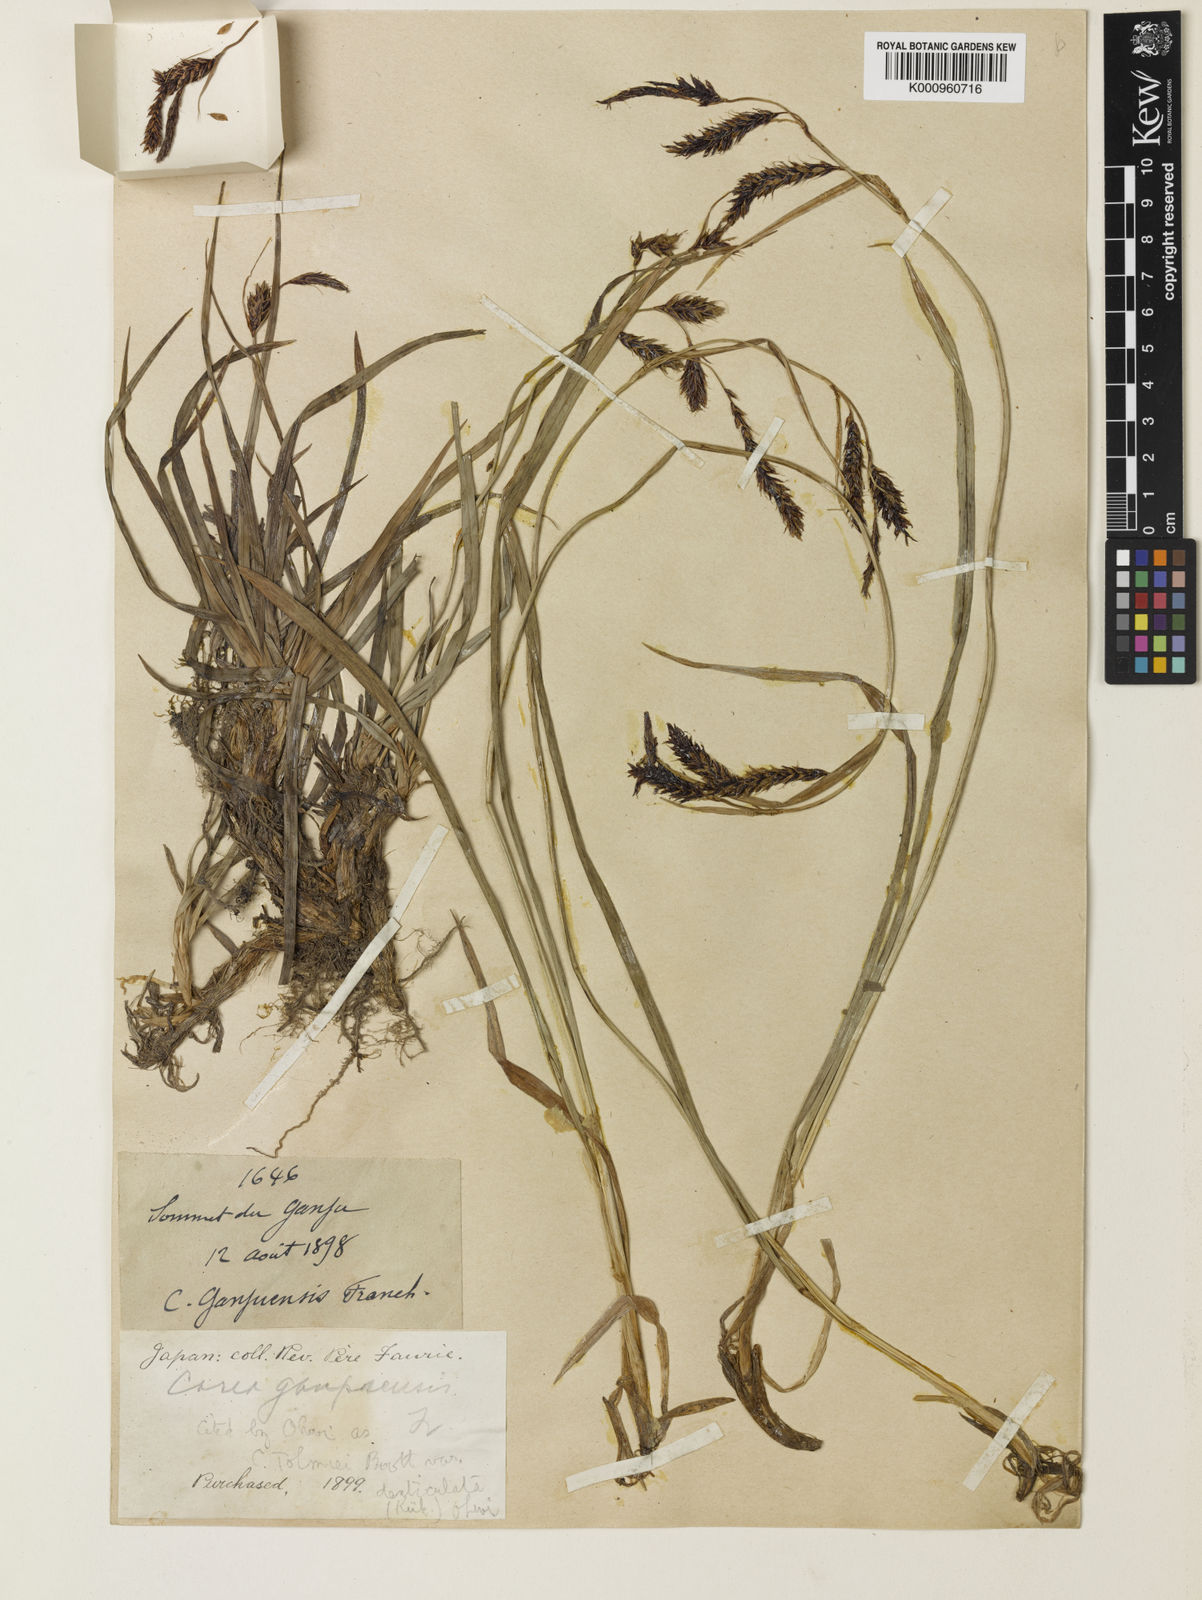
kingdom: Plantae
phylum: Tracheophyta
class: Liliopsida
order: Poales
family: Cyperaceae
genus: Carex
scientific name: Carex macrochaeta
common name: Alaska large awn sedge
